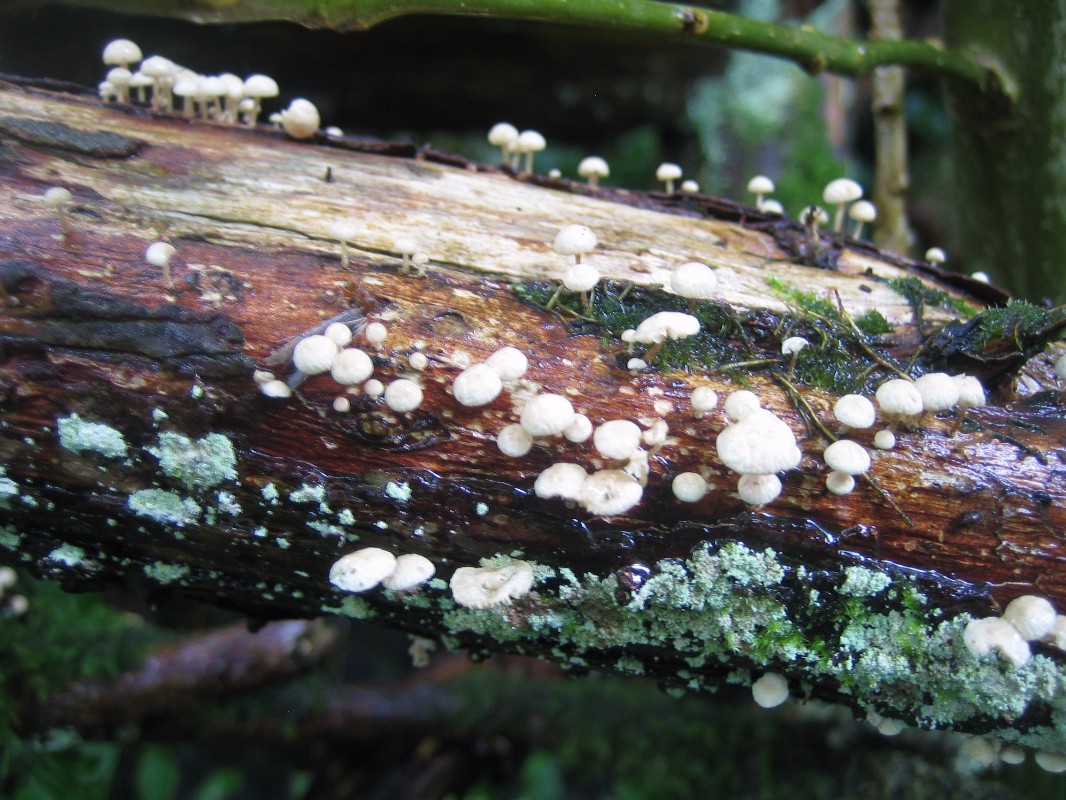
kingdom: Fungi
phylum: Basidiomycota
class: Agaricomycetes
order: Agaricales
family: Omphalotaceae
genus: Collybiopsis
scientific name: Collybiopsis ramealis
